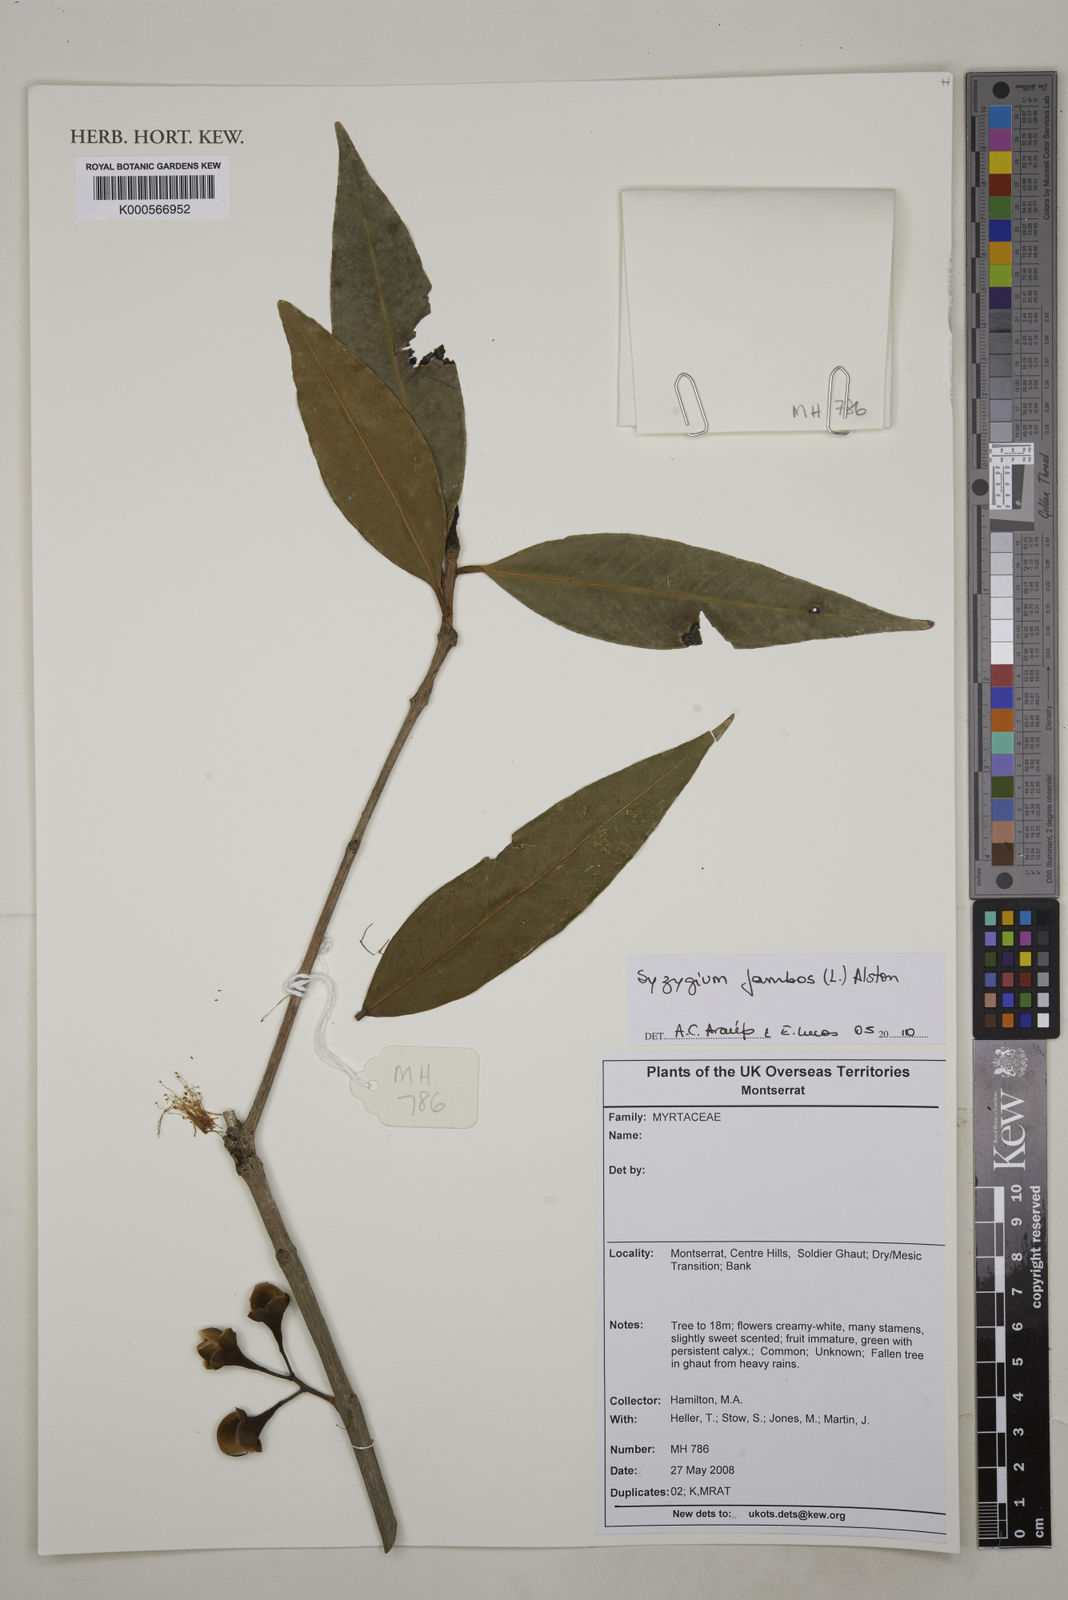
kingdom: Plantae
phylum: Tracheophyta
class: Magnoliopsida
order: Myrtales
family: Myrtaceae
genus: Syzygium
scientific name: Syzygium jambos
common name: Malabar plum
